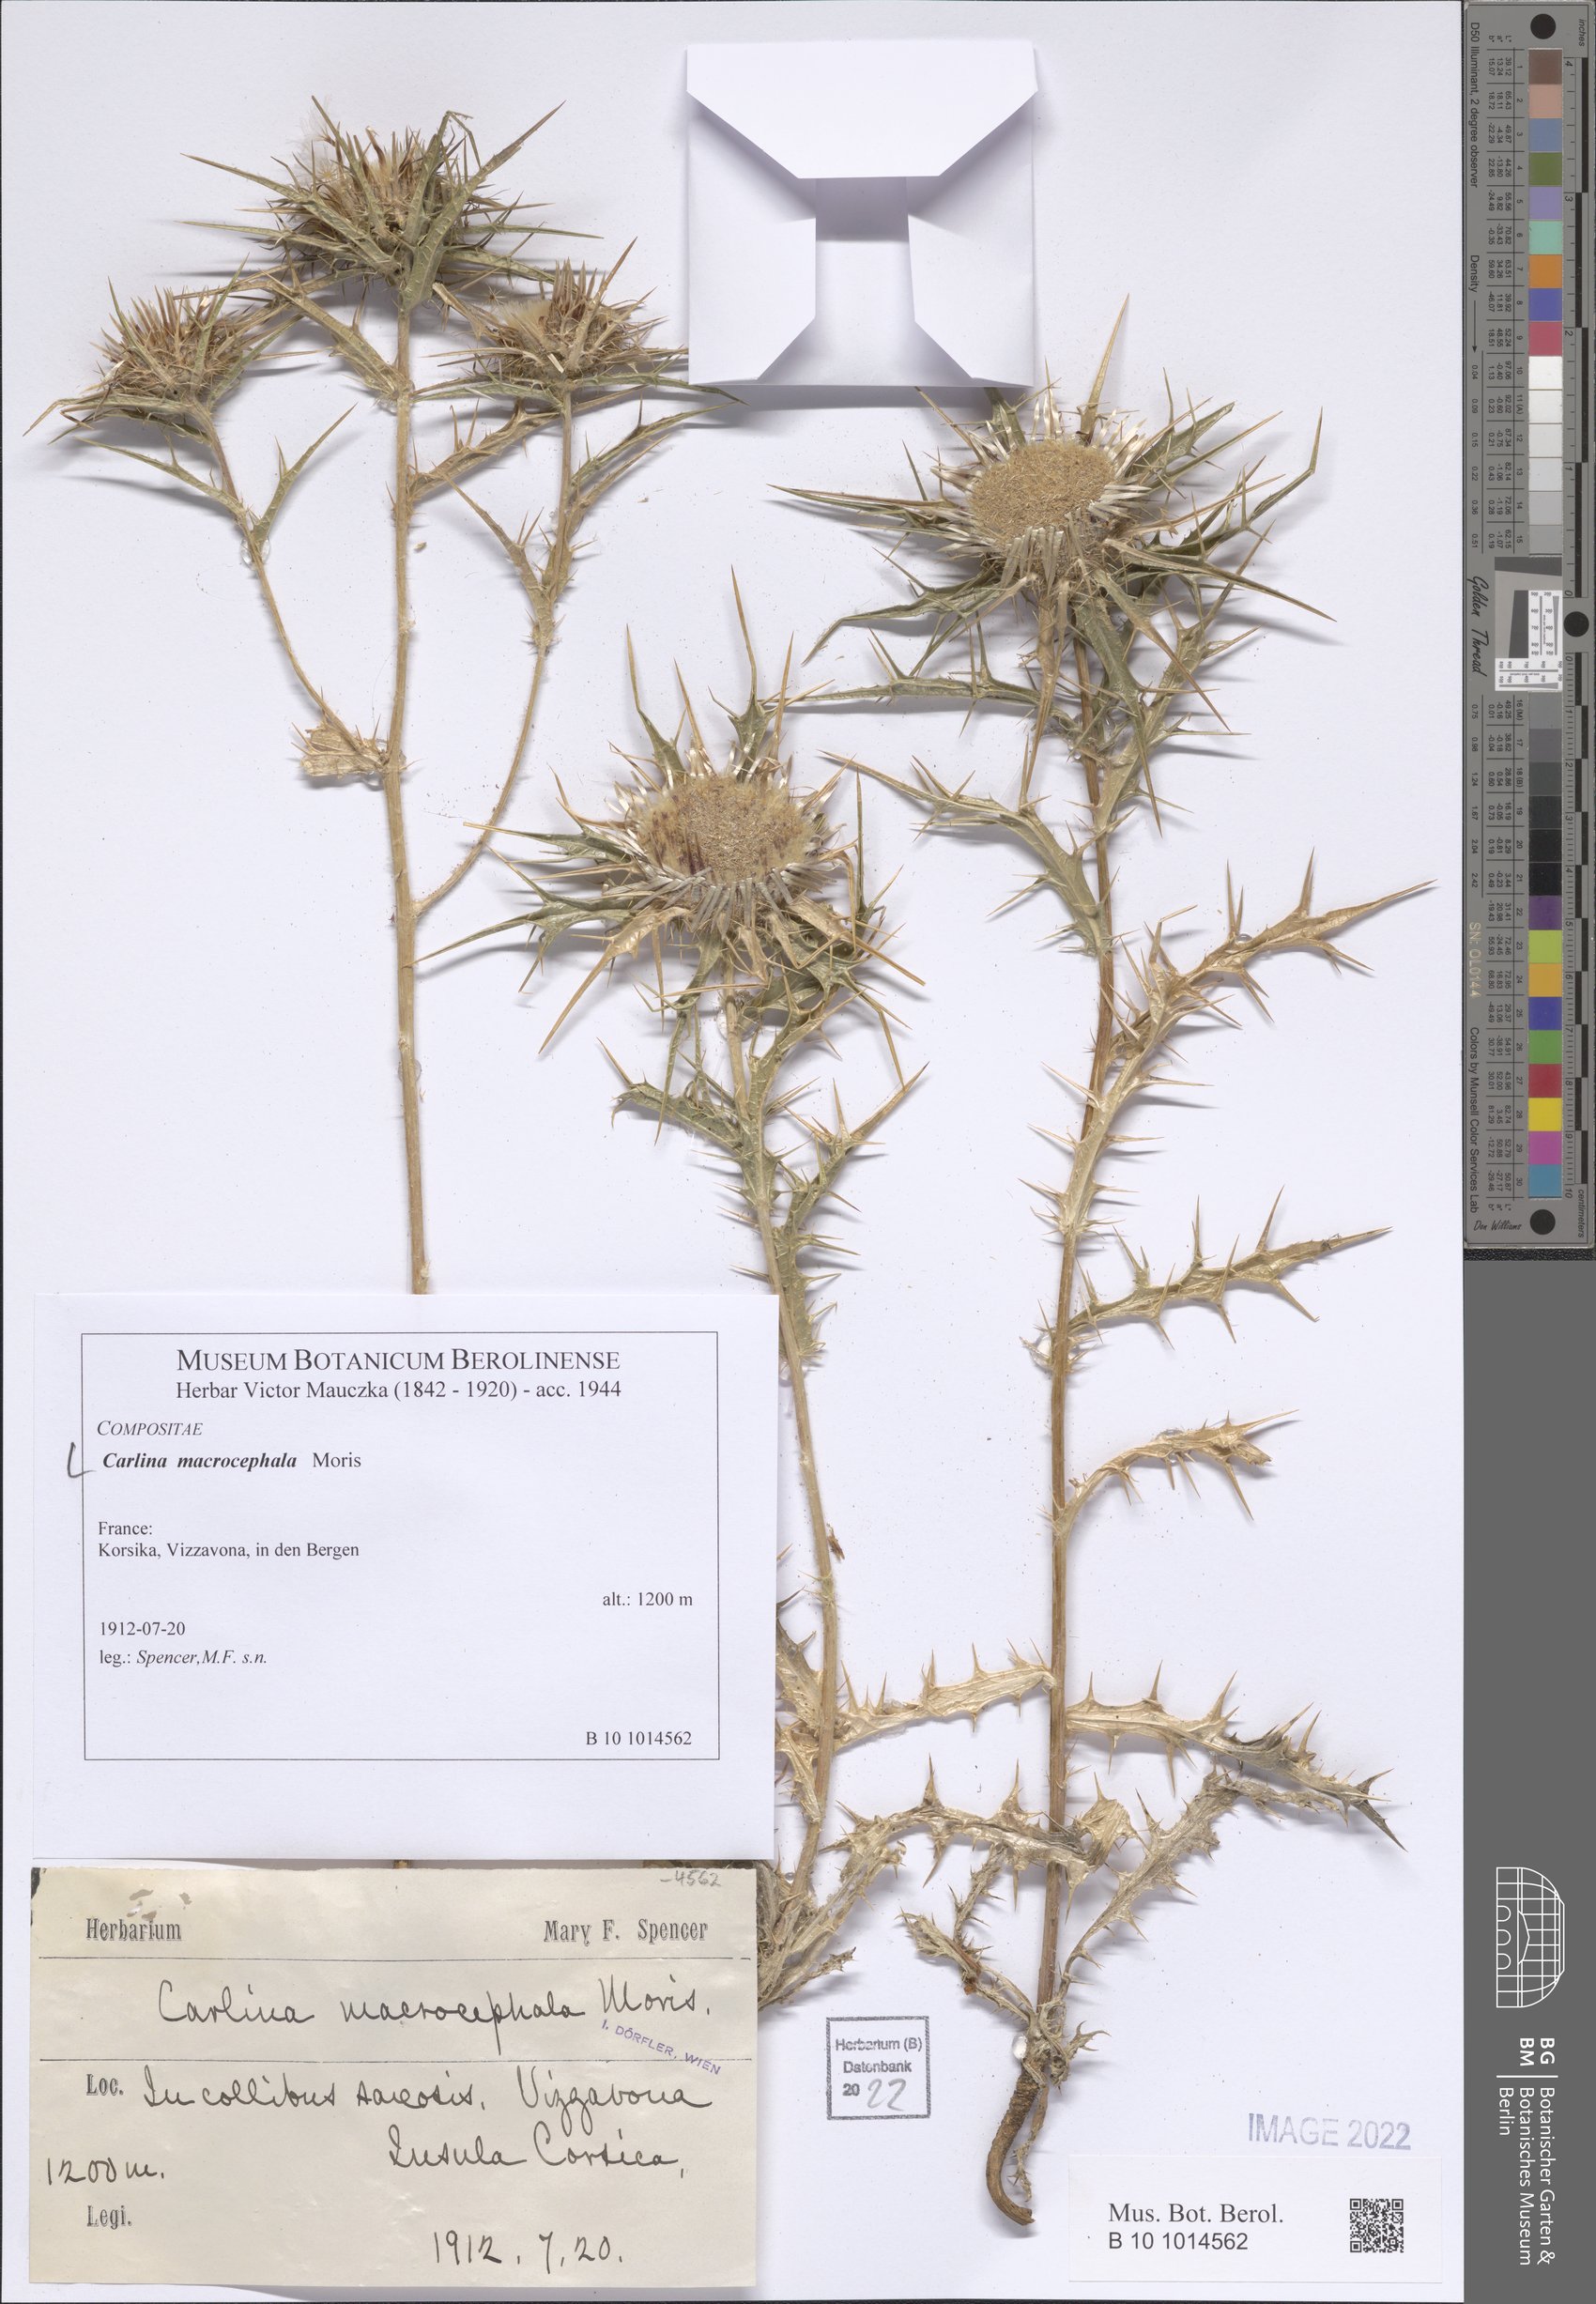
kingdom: Plantae
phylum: Tracheophyta
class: Magnoliopsida
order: Asterales
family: Asteraceae
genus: Chamaeleon
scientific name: Chamaeleon macrocephalus
